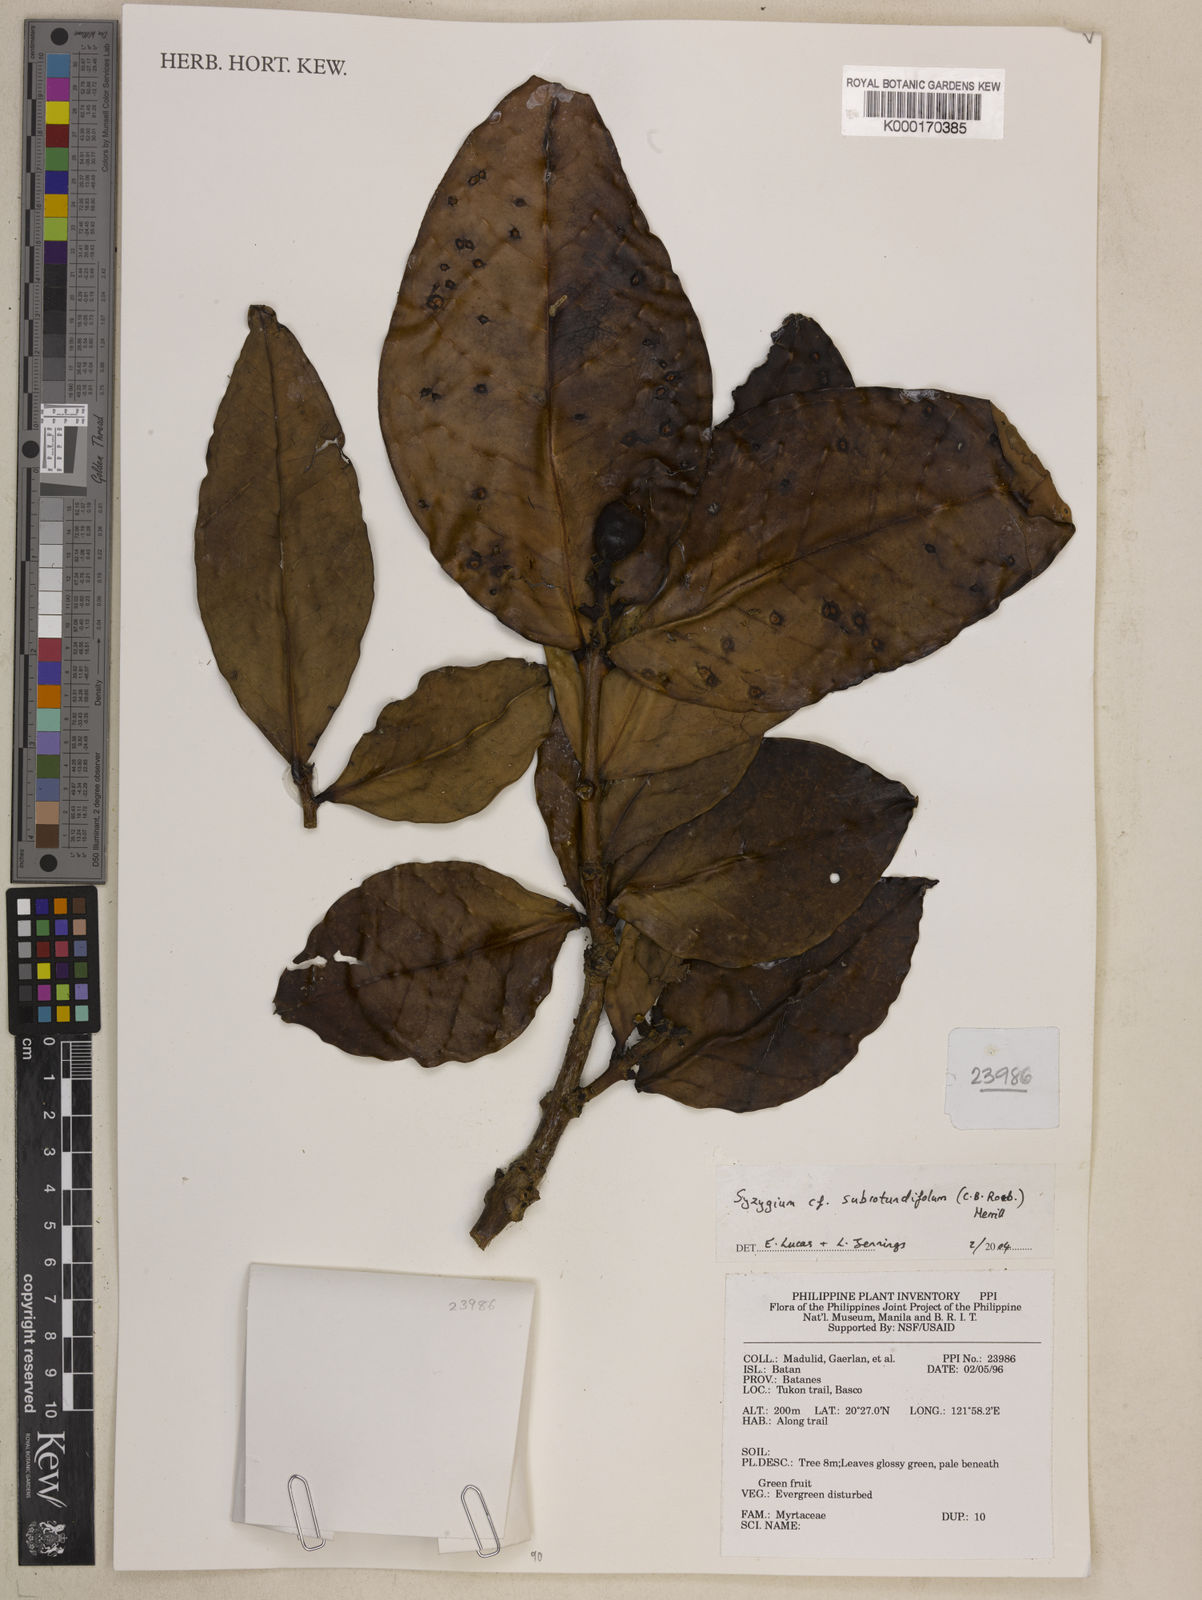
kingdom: Plantae
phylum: Tracheophyta
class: Magnoliopsida
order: Myrtales
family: Myrtaceae
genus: Syzygium
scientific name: Syzygium subrotundifolium
